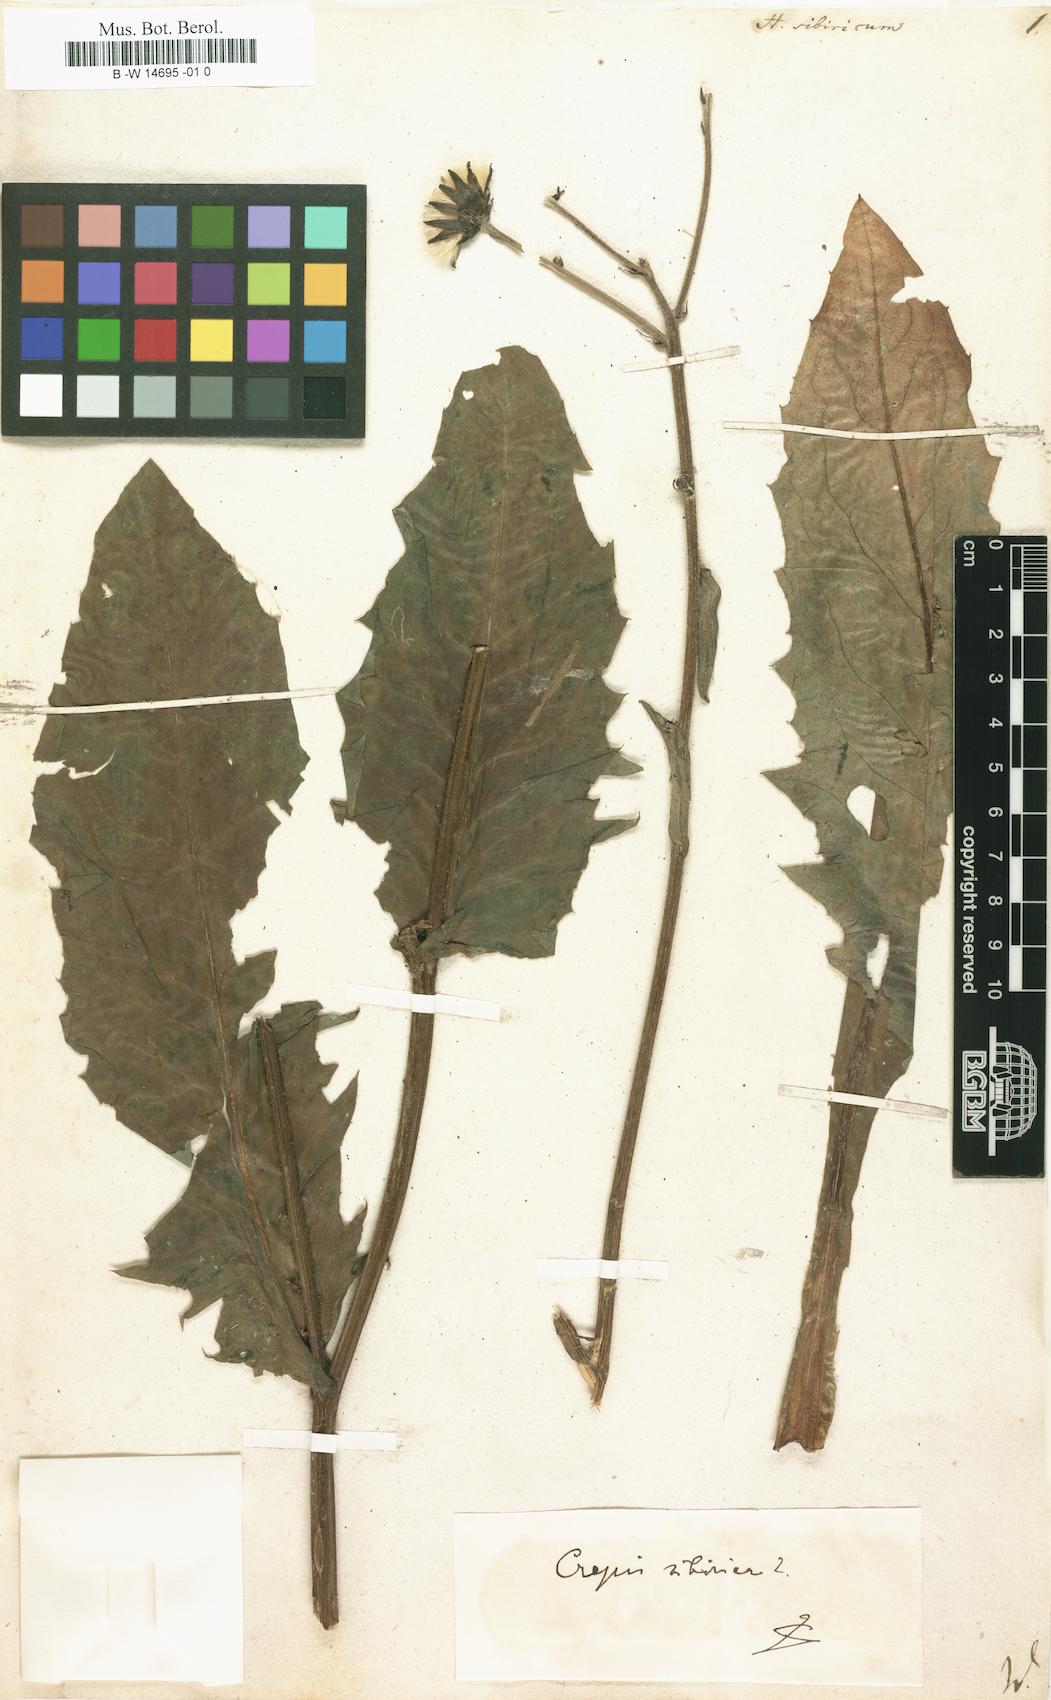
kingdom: Plantae
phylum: Tracheophyta
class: Magnoliopsida
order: Asterales
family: Asteraceae
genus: Crepis
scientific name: Crepis sibirica
